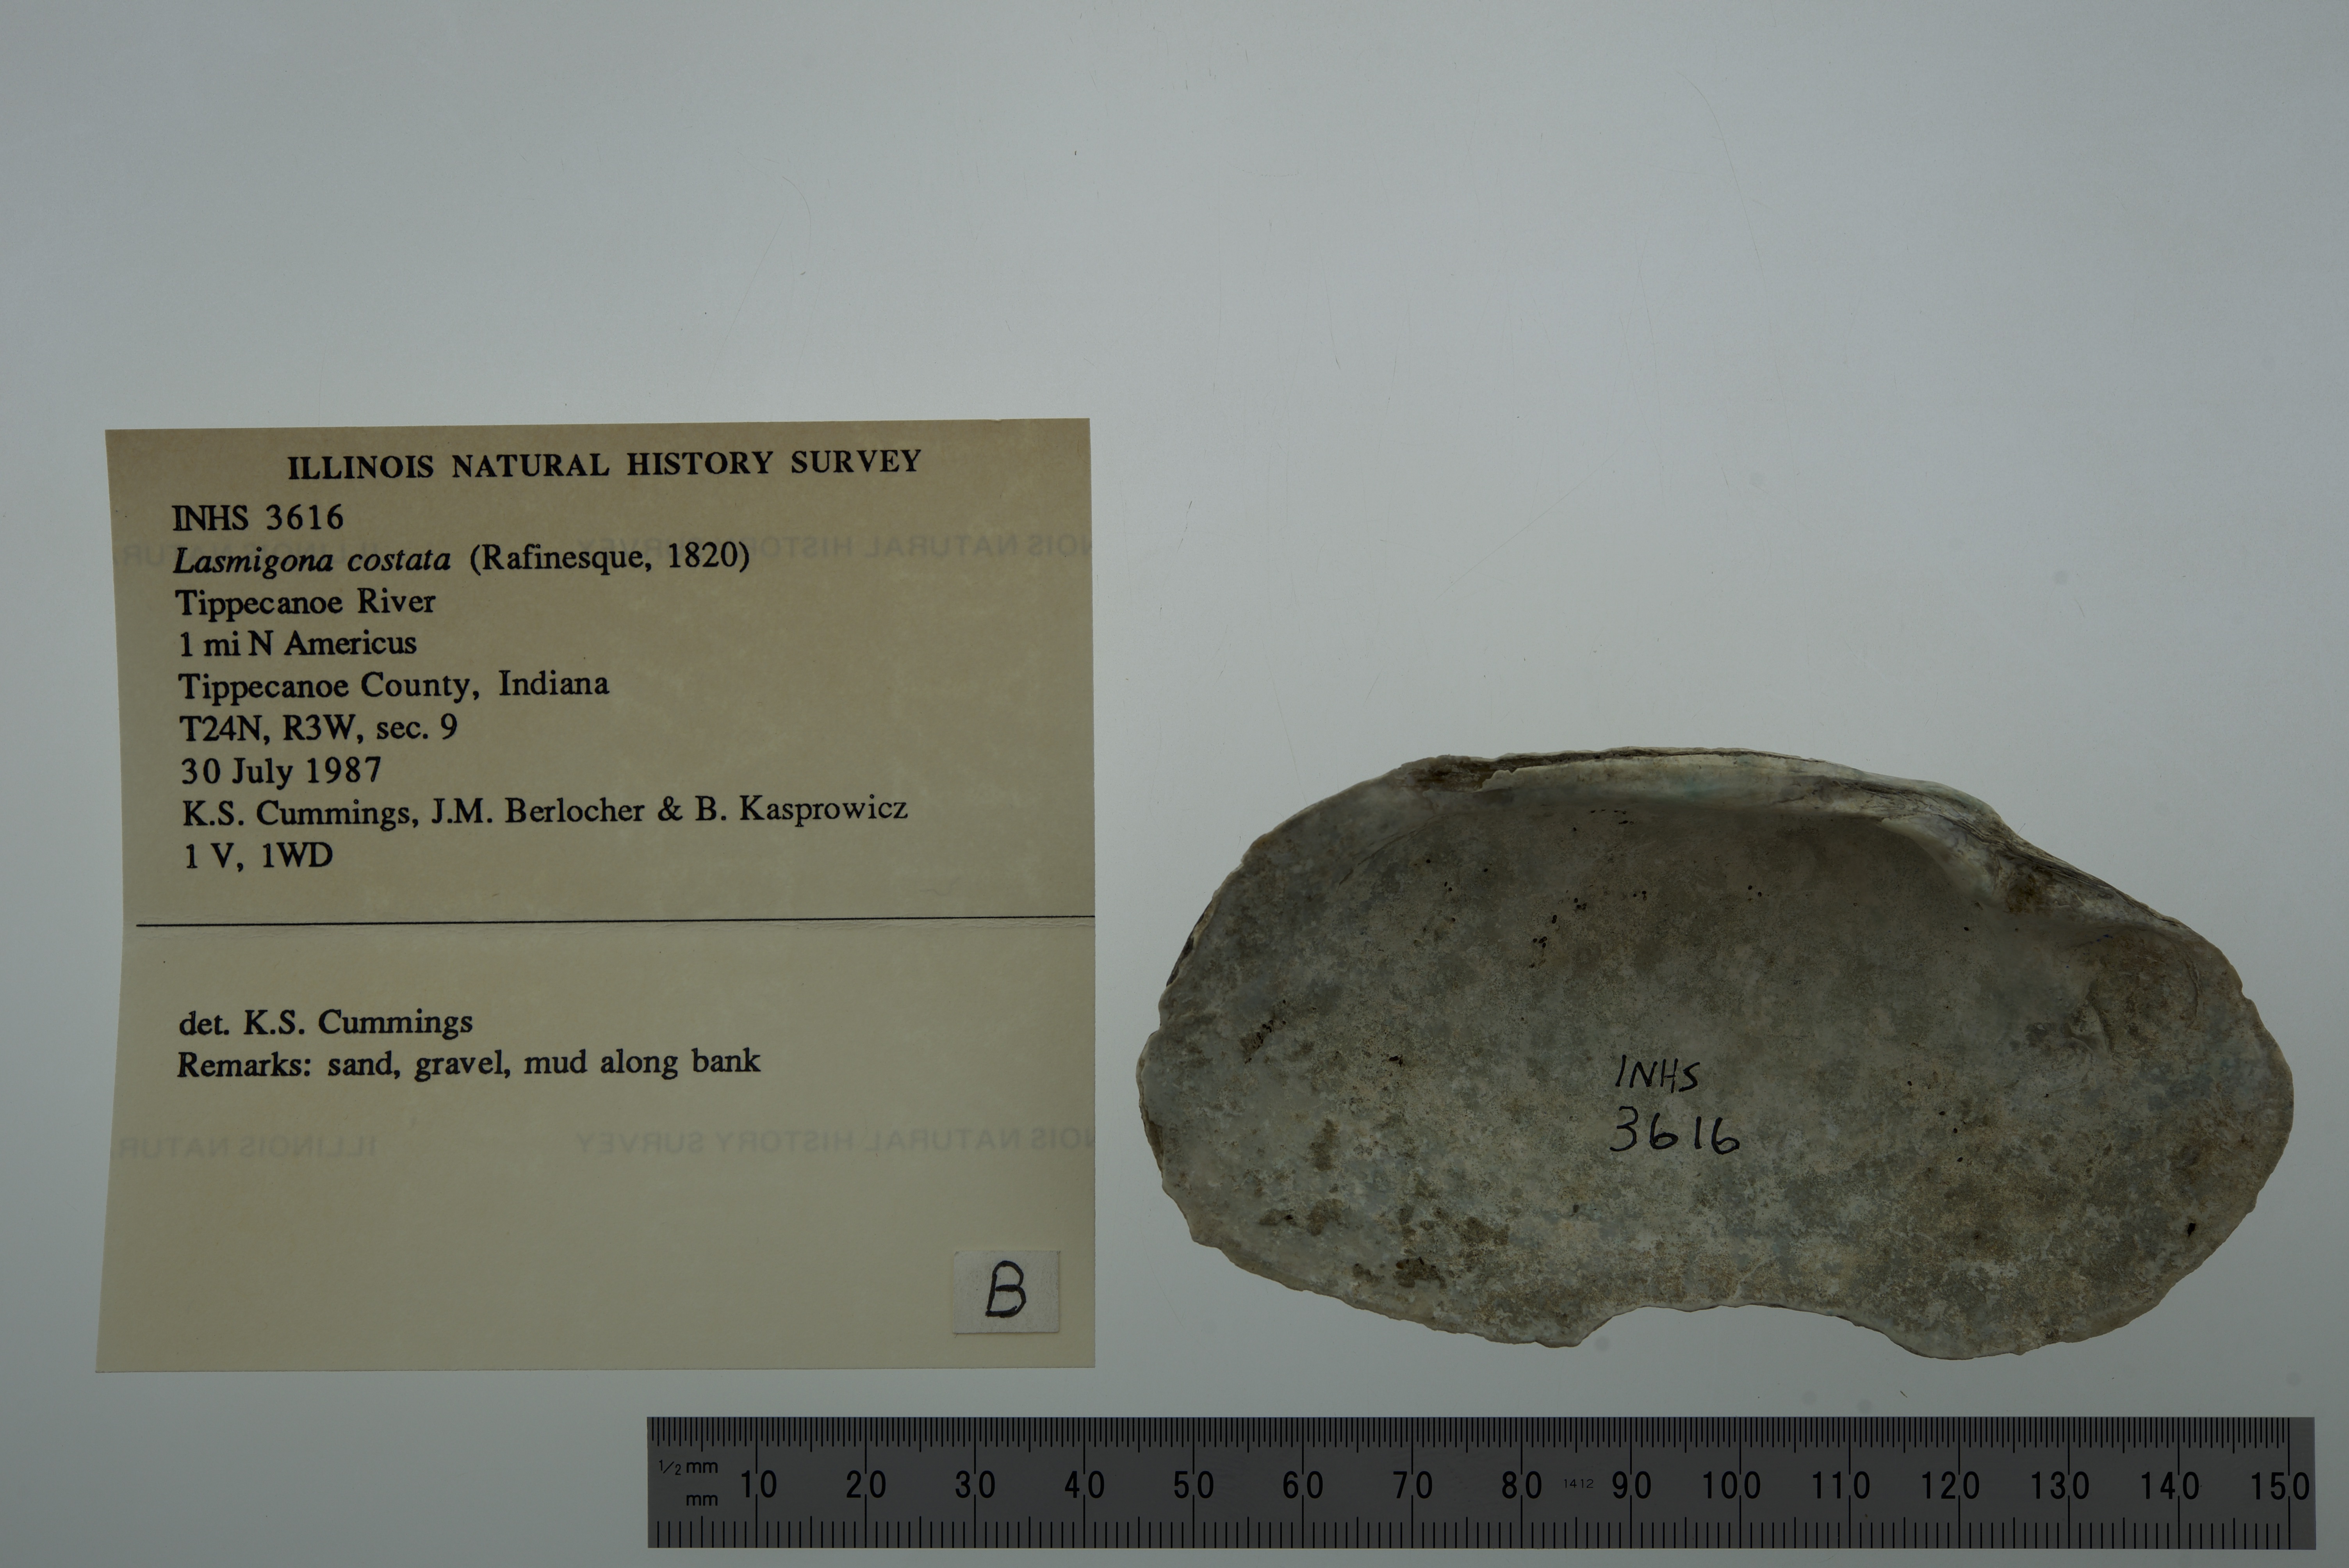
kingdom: Animalia
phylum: Mollusca
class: Bivalvia
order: Unionida
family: Unionidae
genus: Lasmigona
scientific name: Lasmigona costata
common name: Flutedshell
